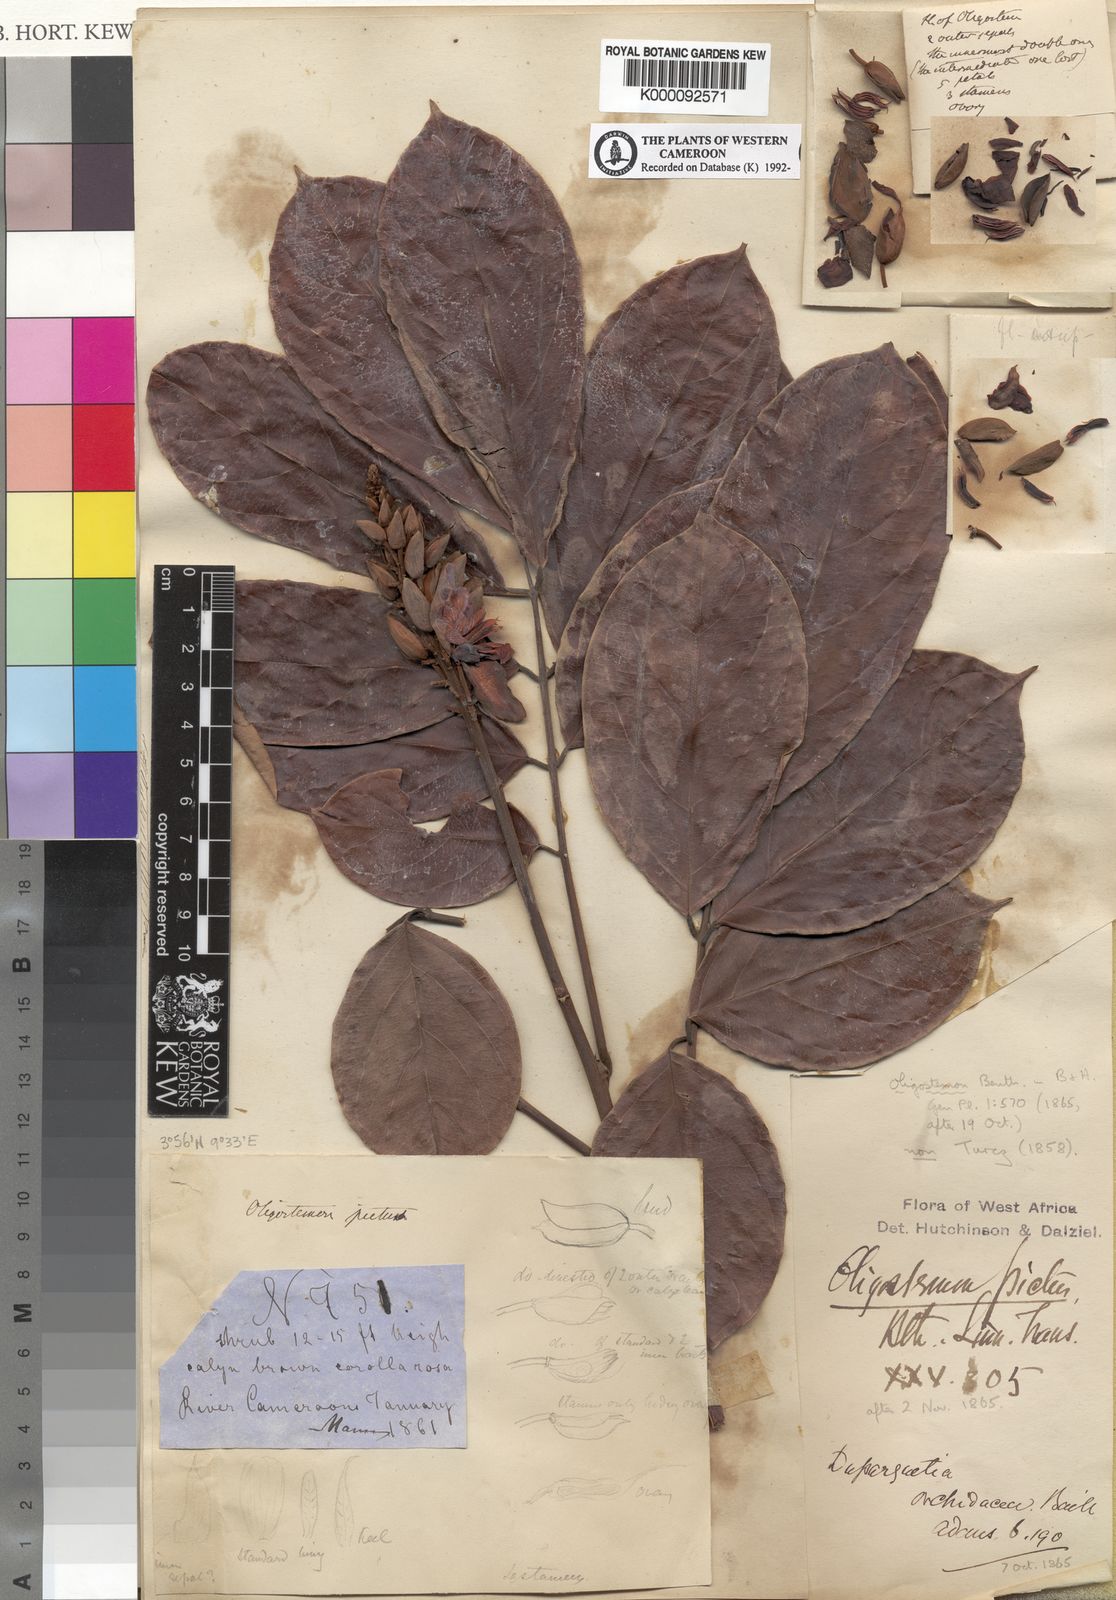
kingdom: Plantae
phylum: Tracheophyta
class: Magnoliopsida
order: Fabales
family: Fabaceae
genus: Duparquetia
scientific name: Duparquetia orchidacea
